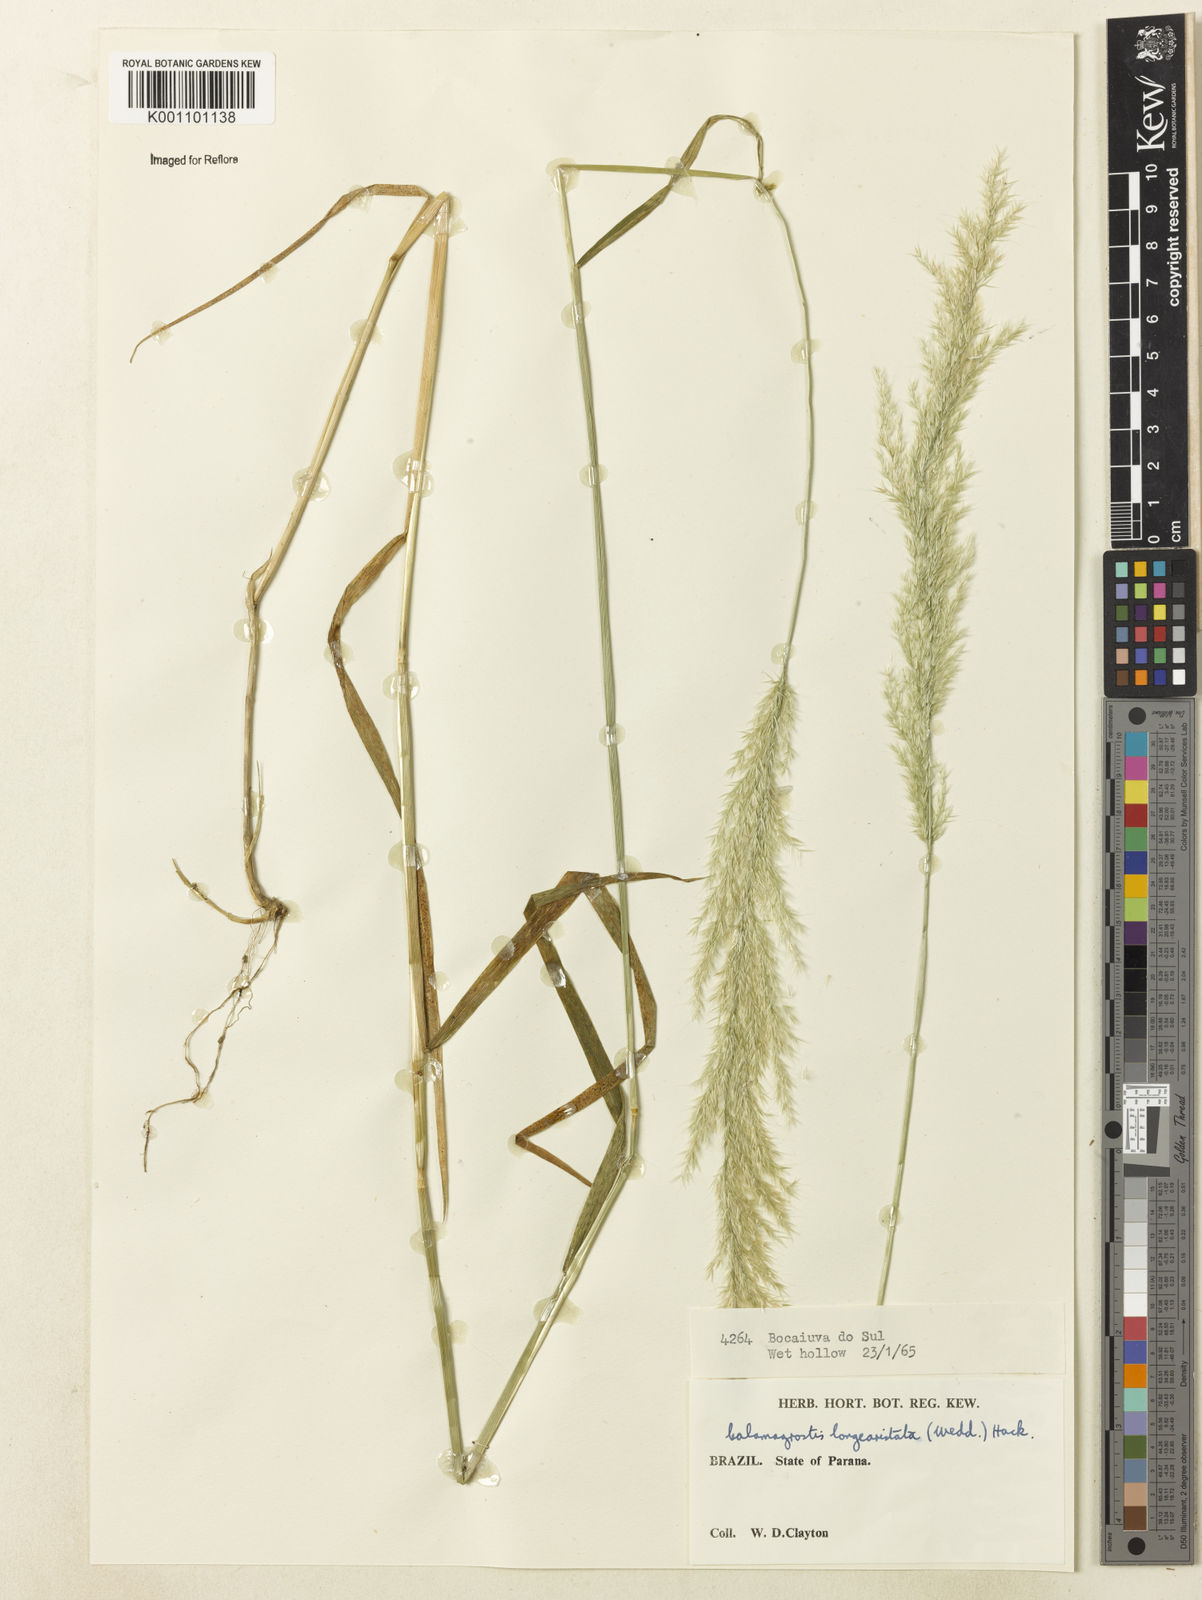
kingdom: Plantae
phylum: Tracheophyta
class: Liliopsida
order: Poales
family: Poaceae
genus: Cinnagrostis
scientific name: Cinnagrostis rupestris
